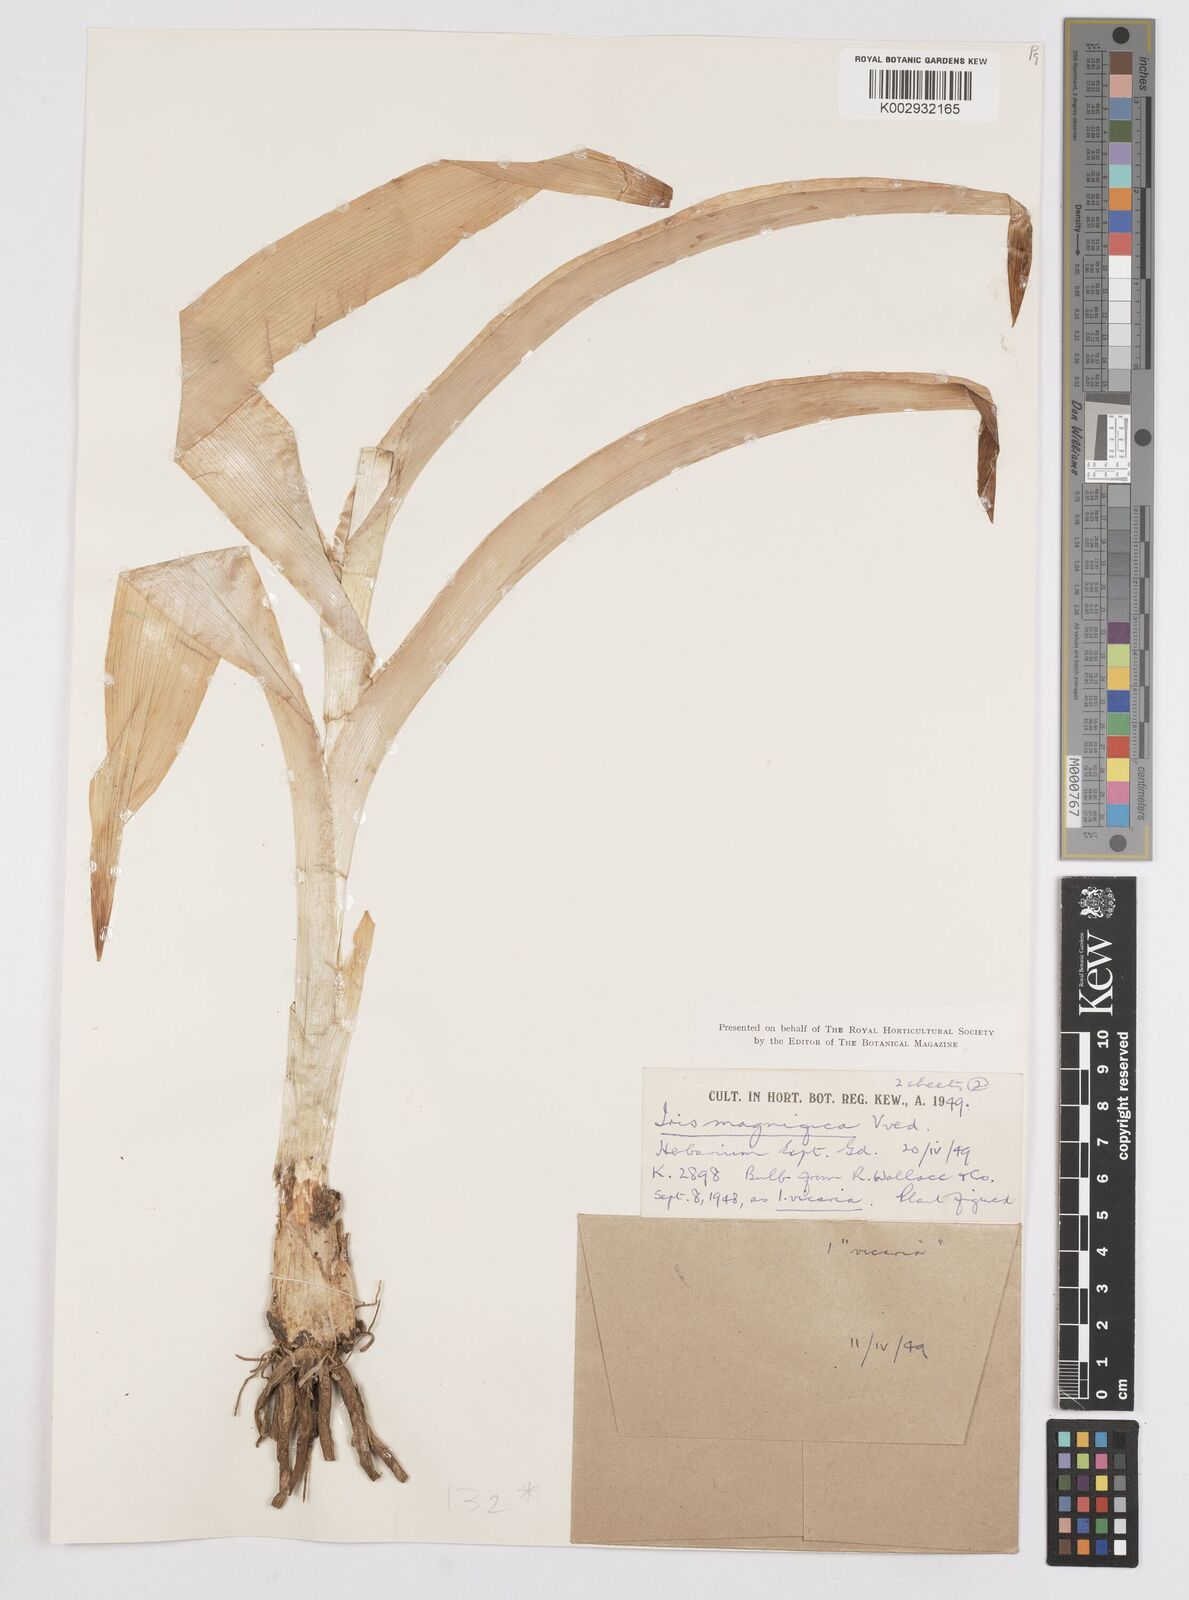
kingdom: Plantae
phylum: Tracheophyta
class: Liliopsida
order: Asparagales
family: Iridaceae
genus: Iris
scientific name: Iris magnifica
